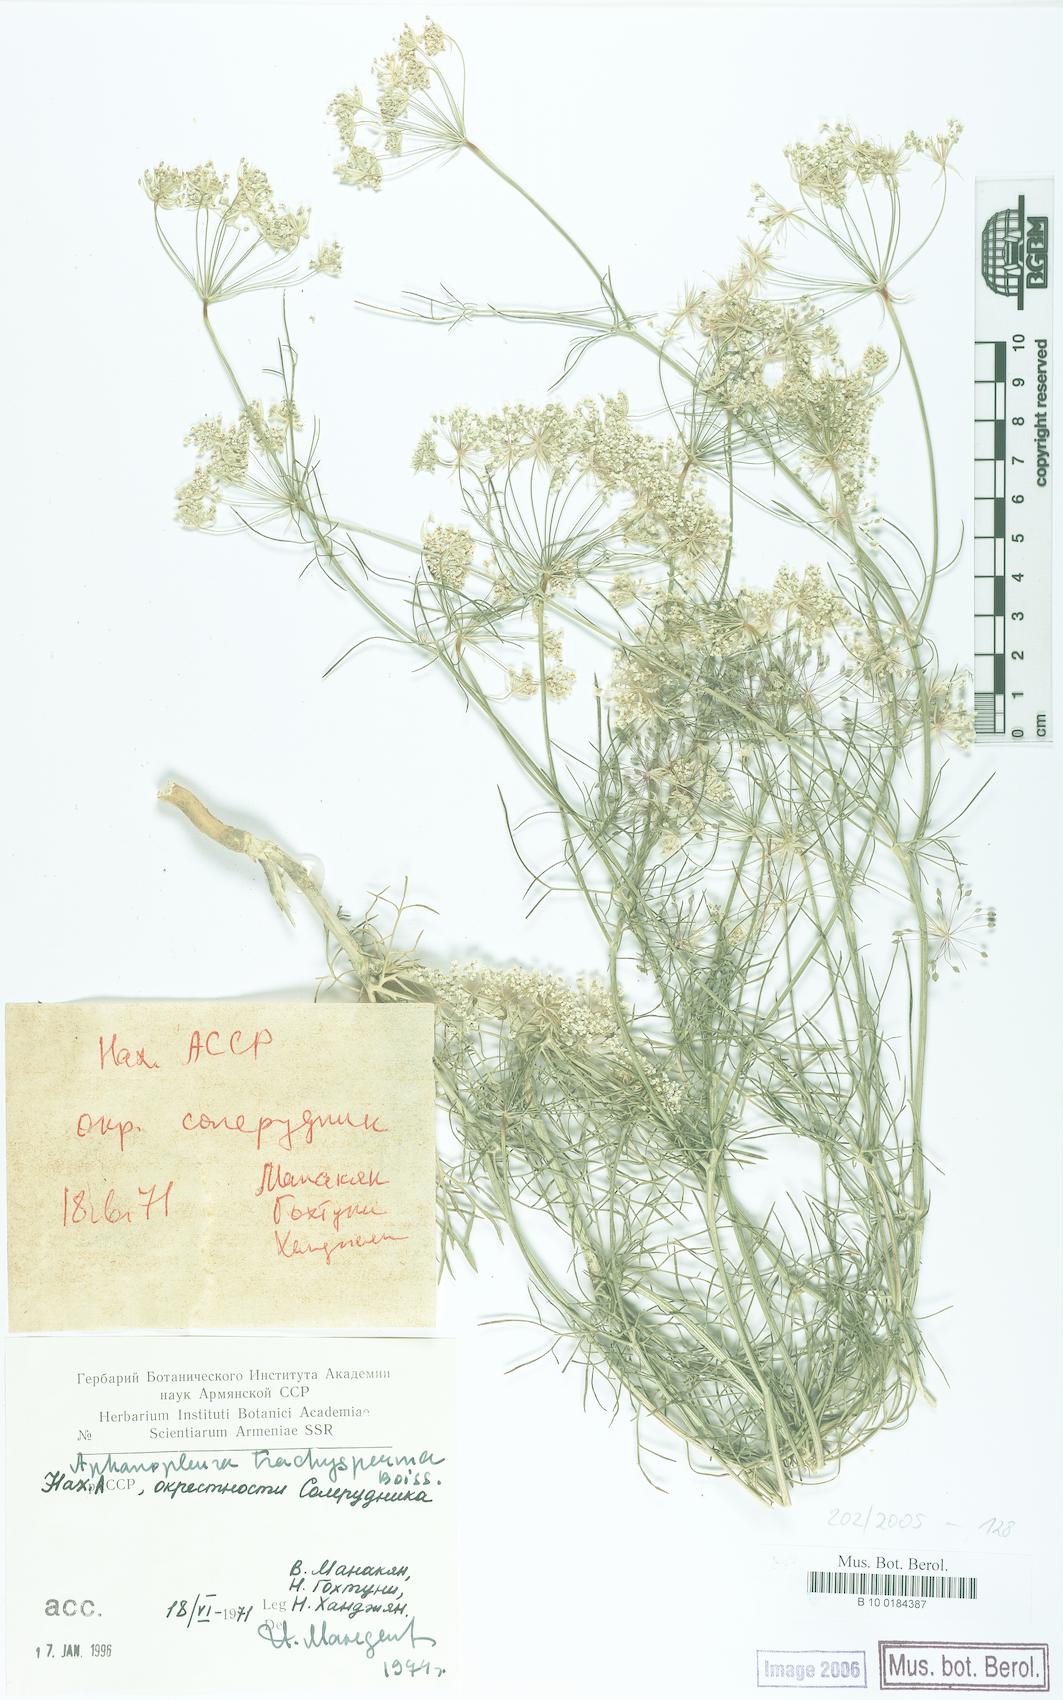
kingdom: Plantae
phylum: Tracheophyta
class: Magnoliopsida
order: Apiales
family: Apiaceae
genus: Aphanopleura
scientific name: Aphanopleura trachysperma
